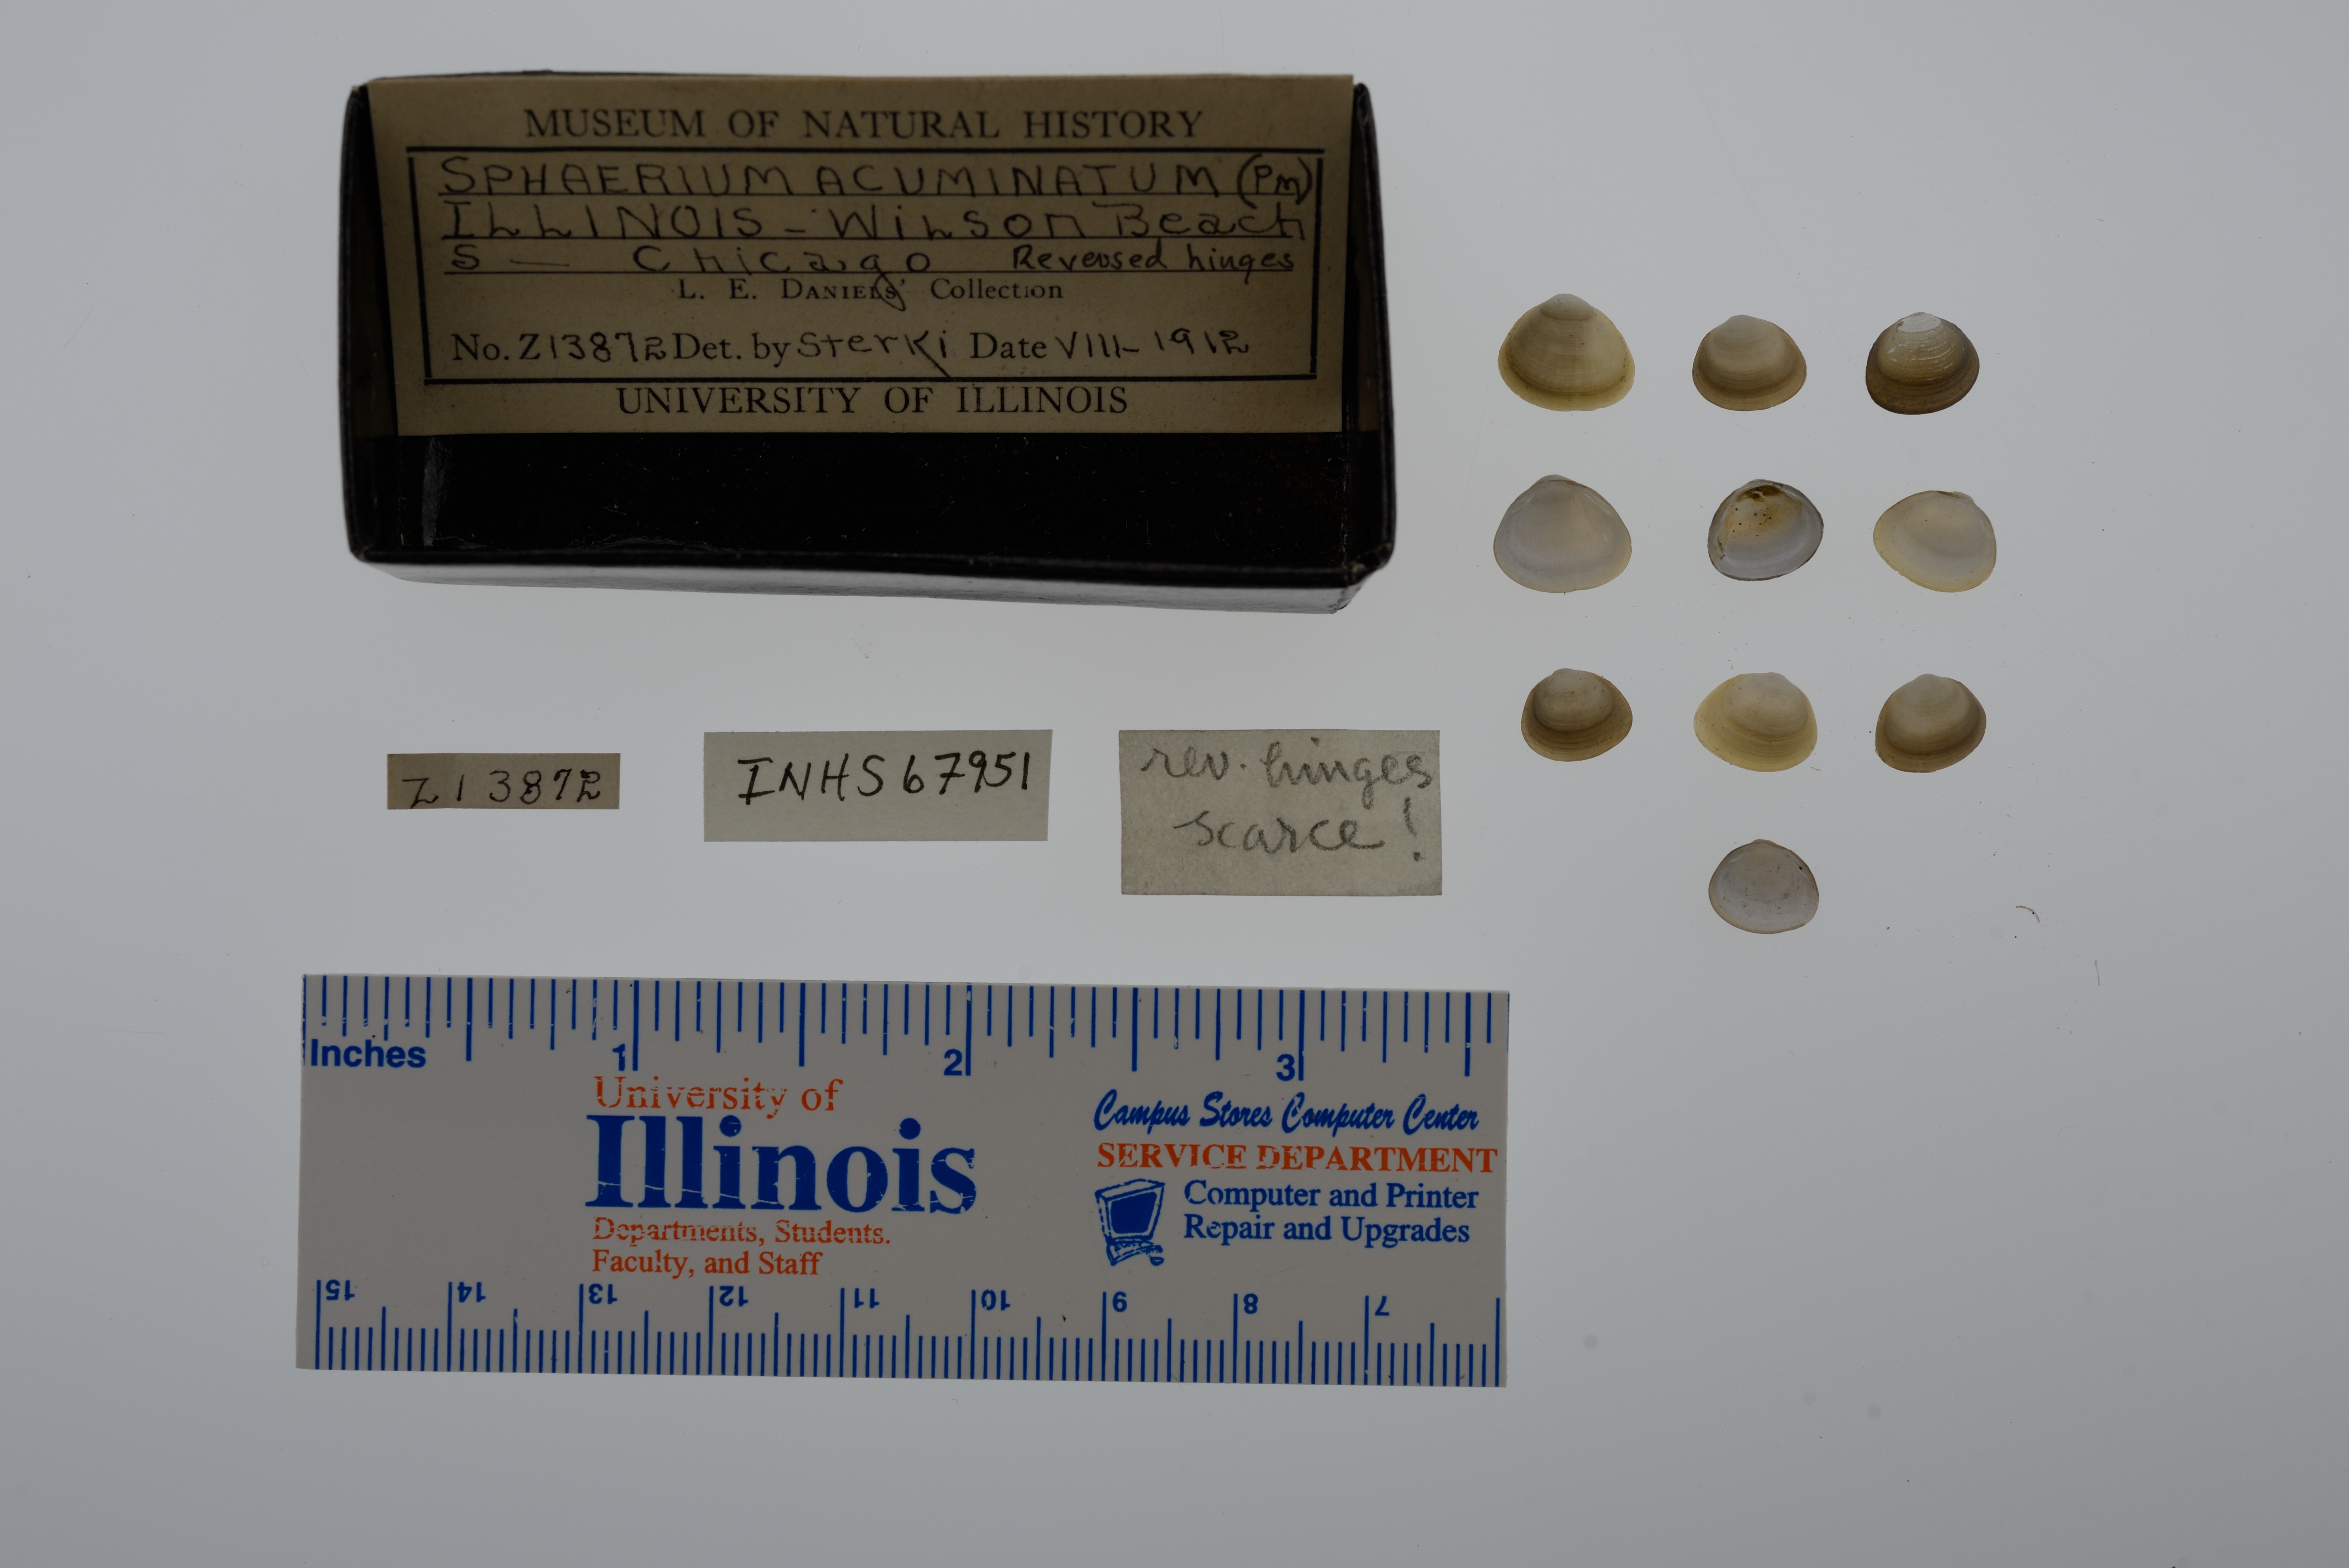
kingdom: Animalia
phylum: Mollusca
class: Bivalvia
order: Sphaeriida
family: Sphaeriidae
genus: Sphaerium
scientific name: Sphaerium striatinum
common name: Striated fingernailclam
